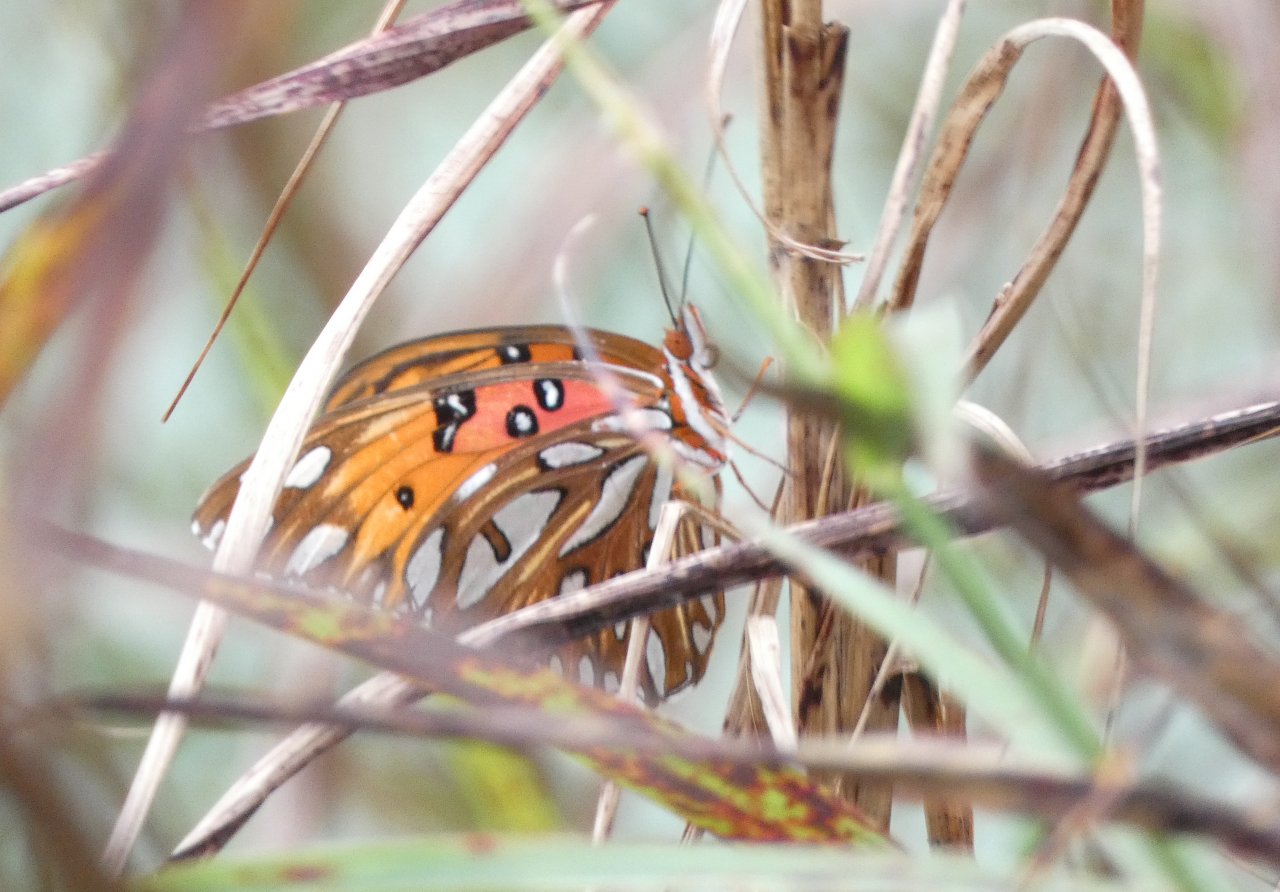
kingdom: Animalia
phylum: Arthropoda
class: Insecta
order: Lepidoptera
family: Nymphalidae
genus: Dione
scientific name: Dione vanillae
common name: Gulf Fritillary
